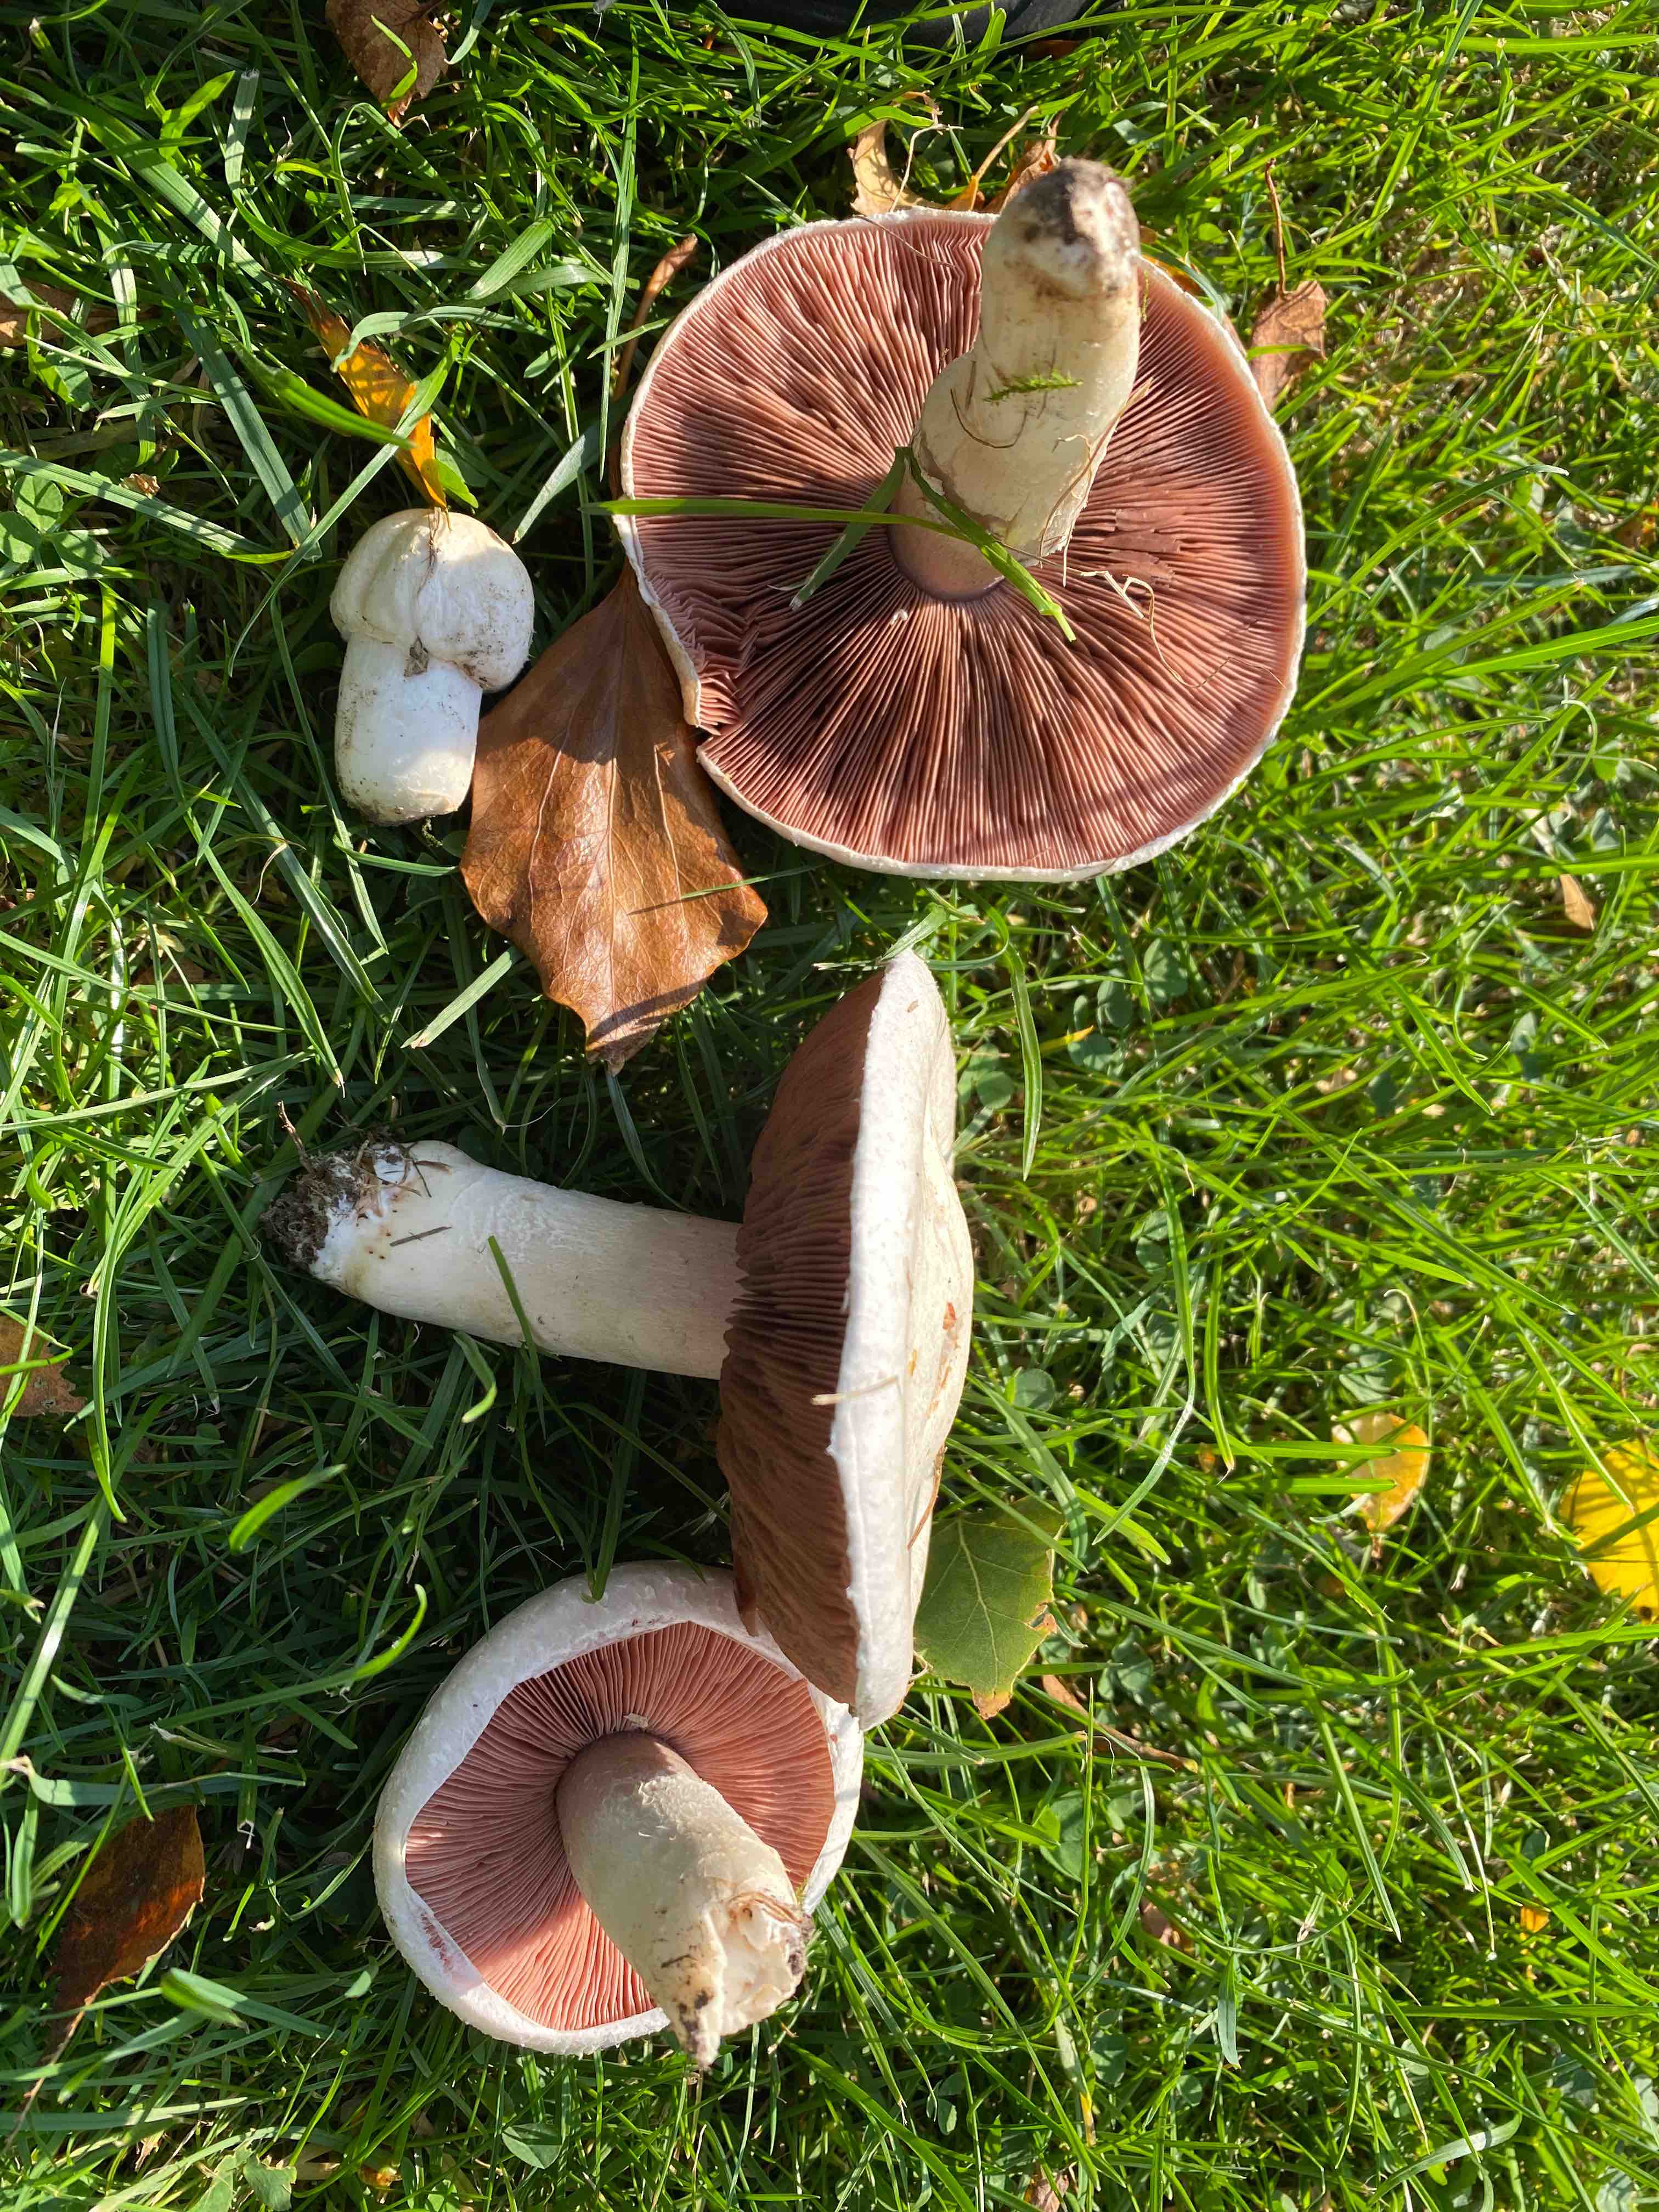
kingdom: Fungi
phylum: Basidiomycota
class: Agaricomycetes
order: Agaricales
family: Agaricaceae
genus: Agaricus
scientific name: Agaricus campestris
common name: mark-champignon
